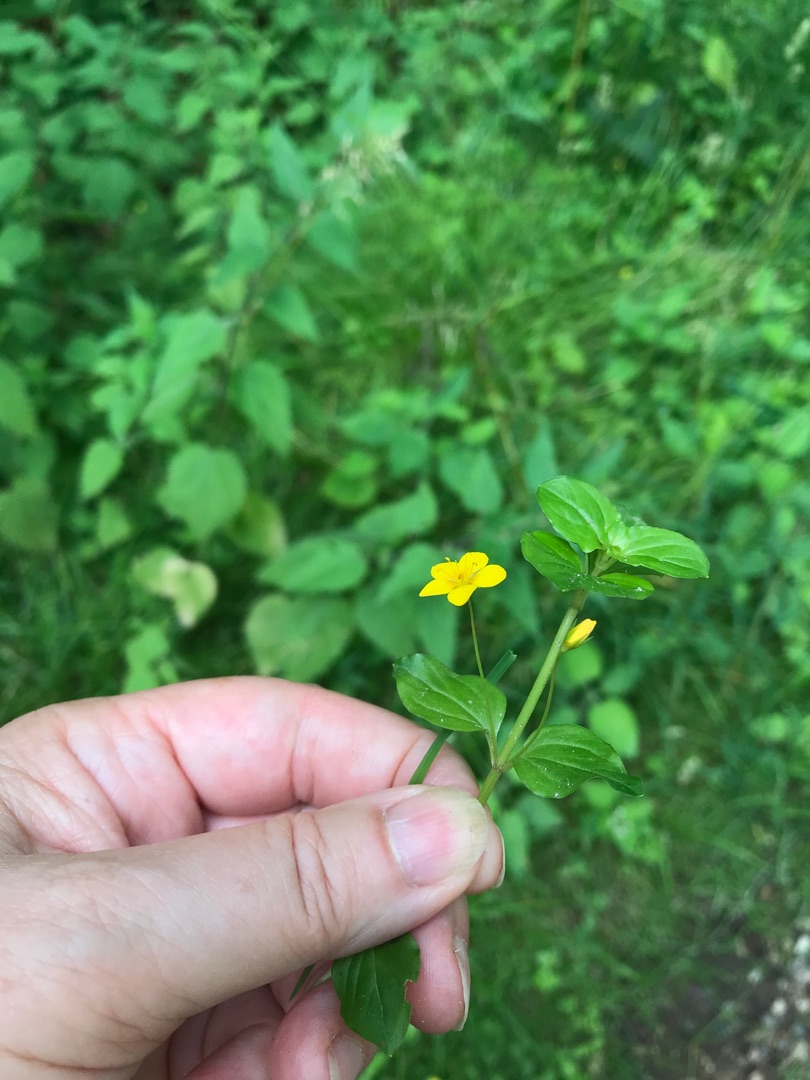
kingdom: Plantae
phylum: Tracheophyta
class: Magnoliopsida
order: Ericales
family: Primulaceae
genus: Lysimachia
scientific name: Lysimachia nemorum
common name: Lund-fredløs
